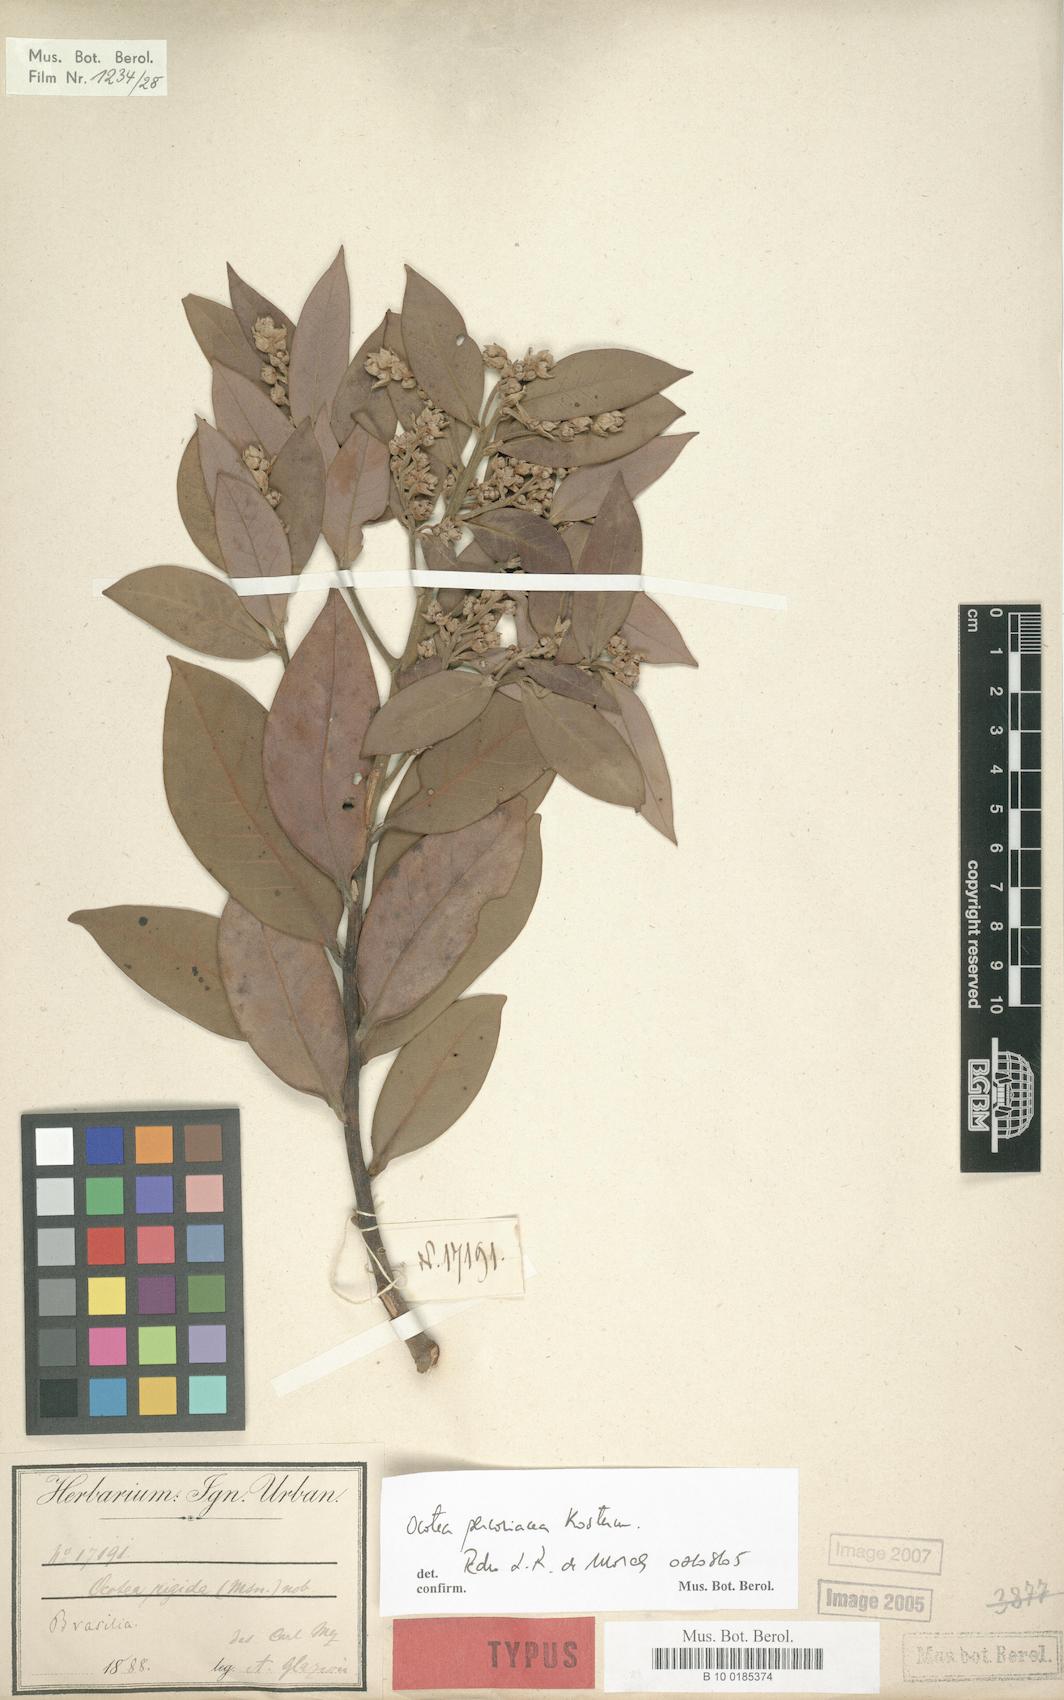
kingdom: Plantae
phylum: Tracheophyta
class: Magnoliopsida
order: Laurales
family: Lauraceae
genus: Ocotea
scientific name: Ocotea percoriacea
